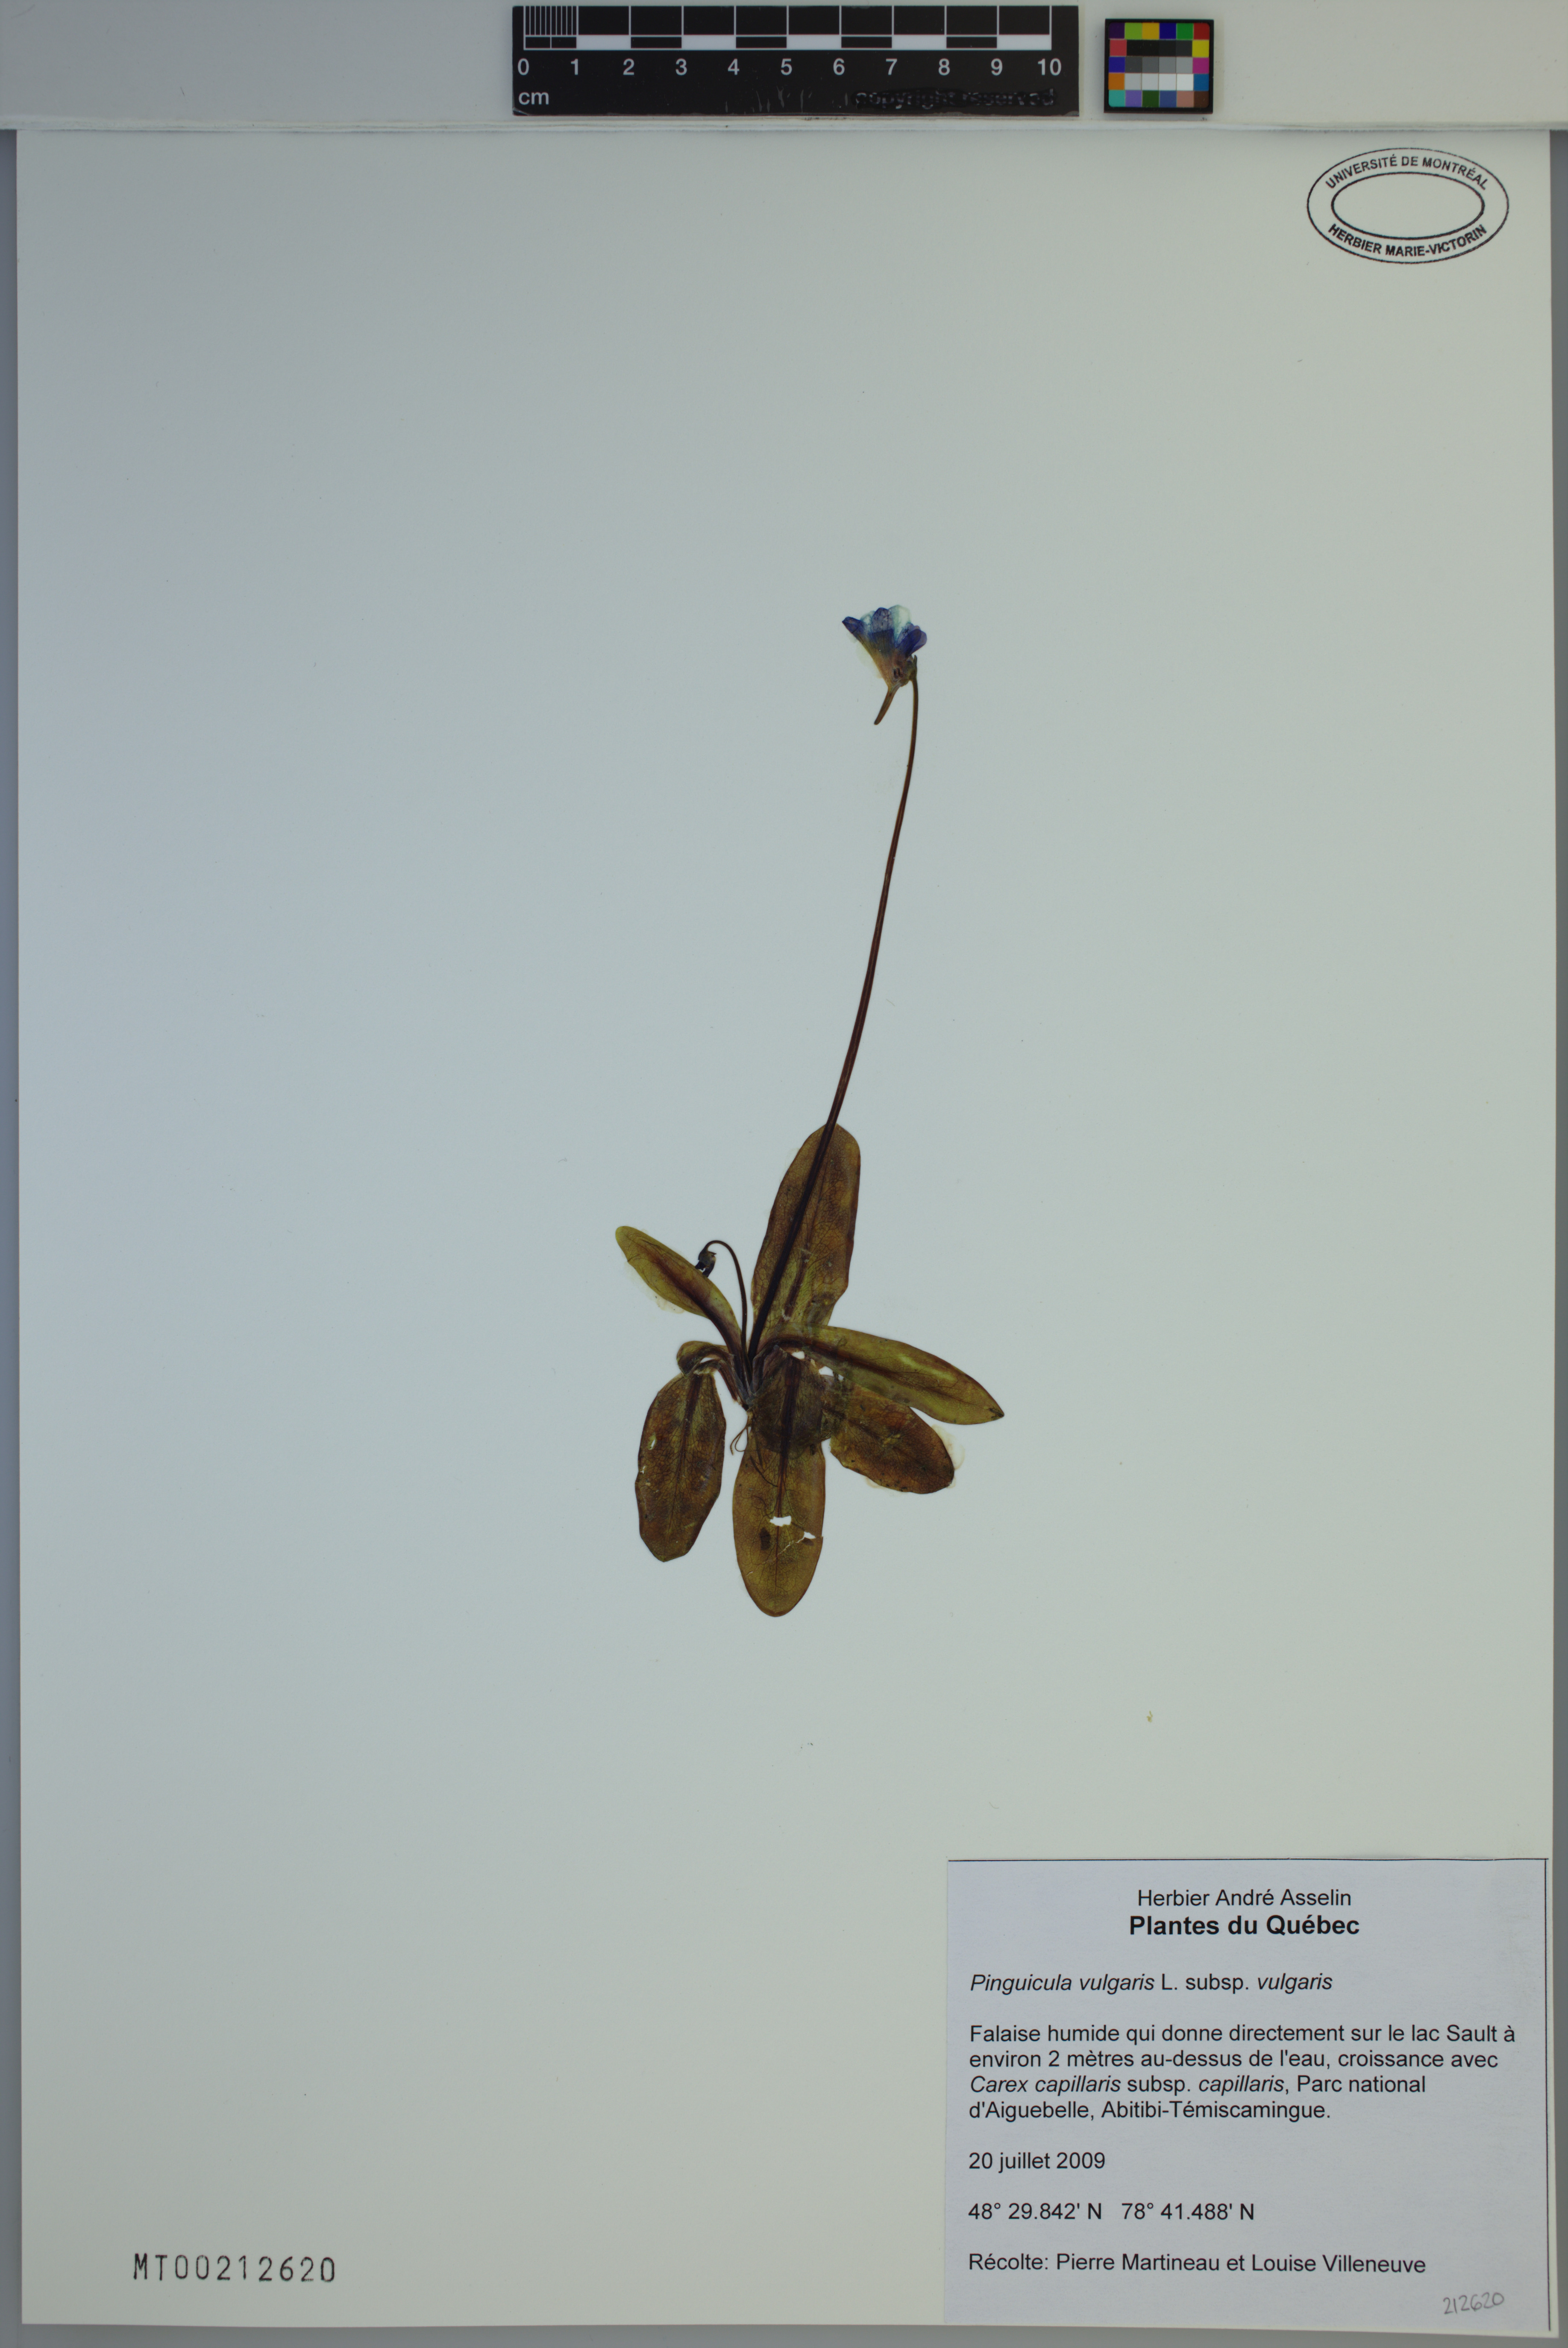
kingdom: Plantae
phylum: Tracheophyta
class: Magnoliopsida
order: Lamiales
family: Lentibulariaceae
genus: Pinguicula
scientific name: Pinguicula vulgaris
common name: Common butterwort
